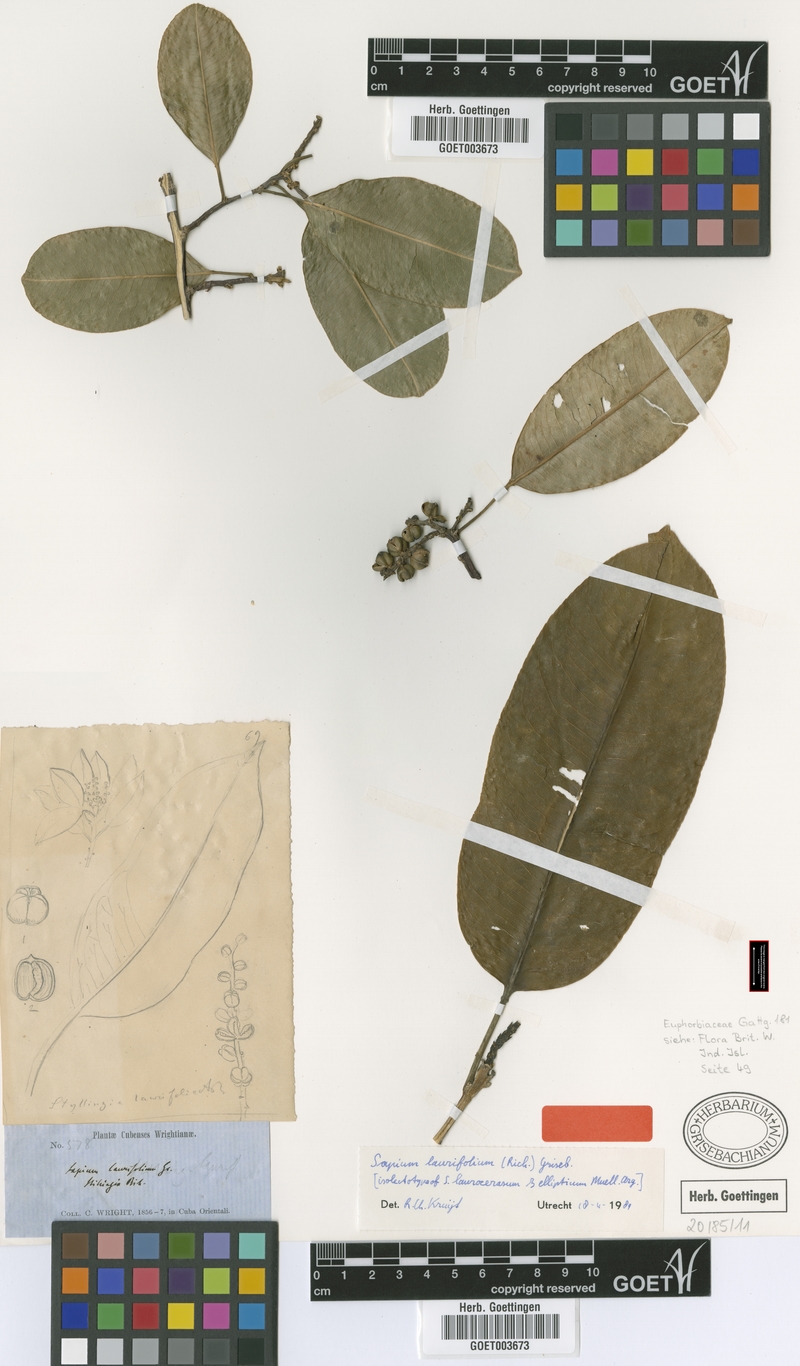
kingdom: Plantae
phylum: Tracheophyta
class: Magnoliopsida
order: Malpighiales
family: Euphorbiaceae
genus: Sapium
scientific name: Sapium laurifolium
